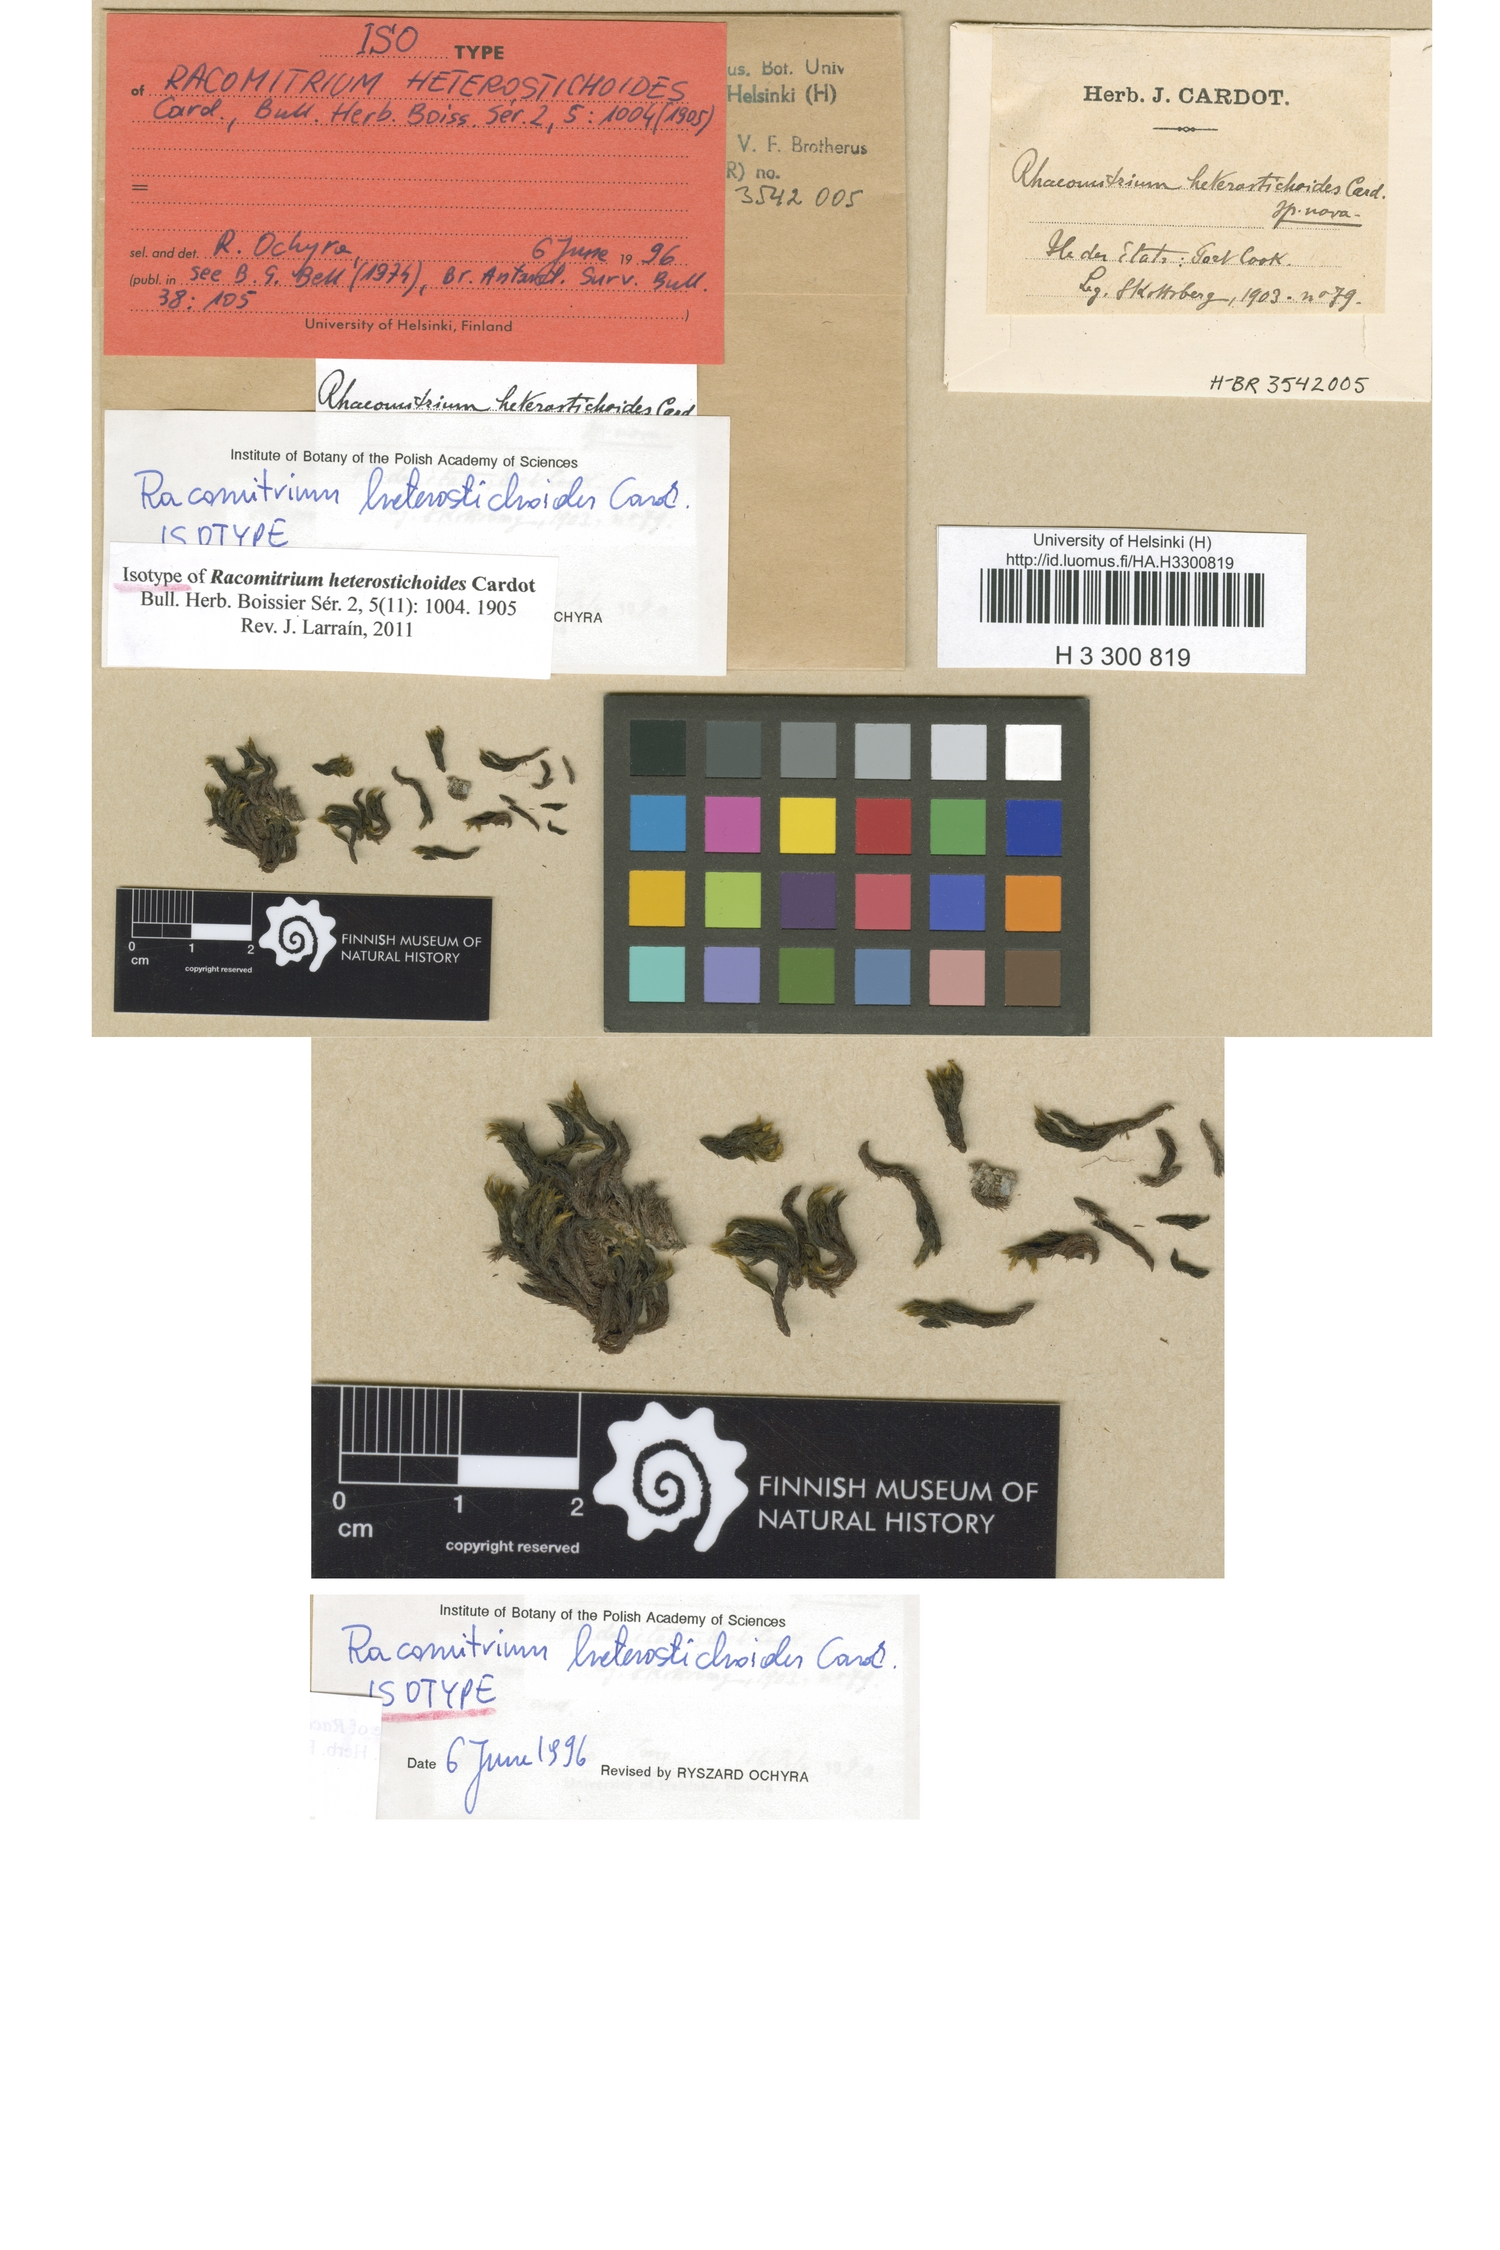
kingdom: Plantae
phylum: Bryophyta
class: Bryopsida
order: Grimmiales
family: Grimmiaceae
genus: Bucklandiella
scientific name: Bucklandiella heterostichoides
